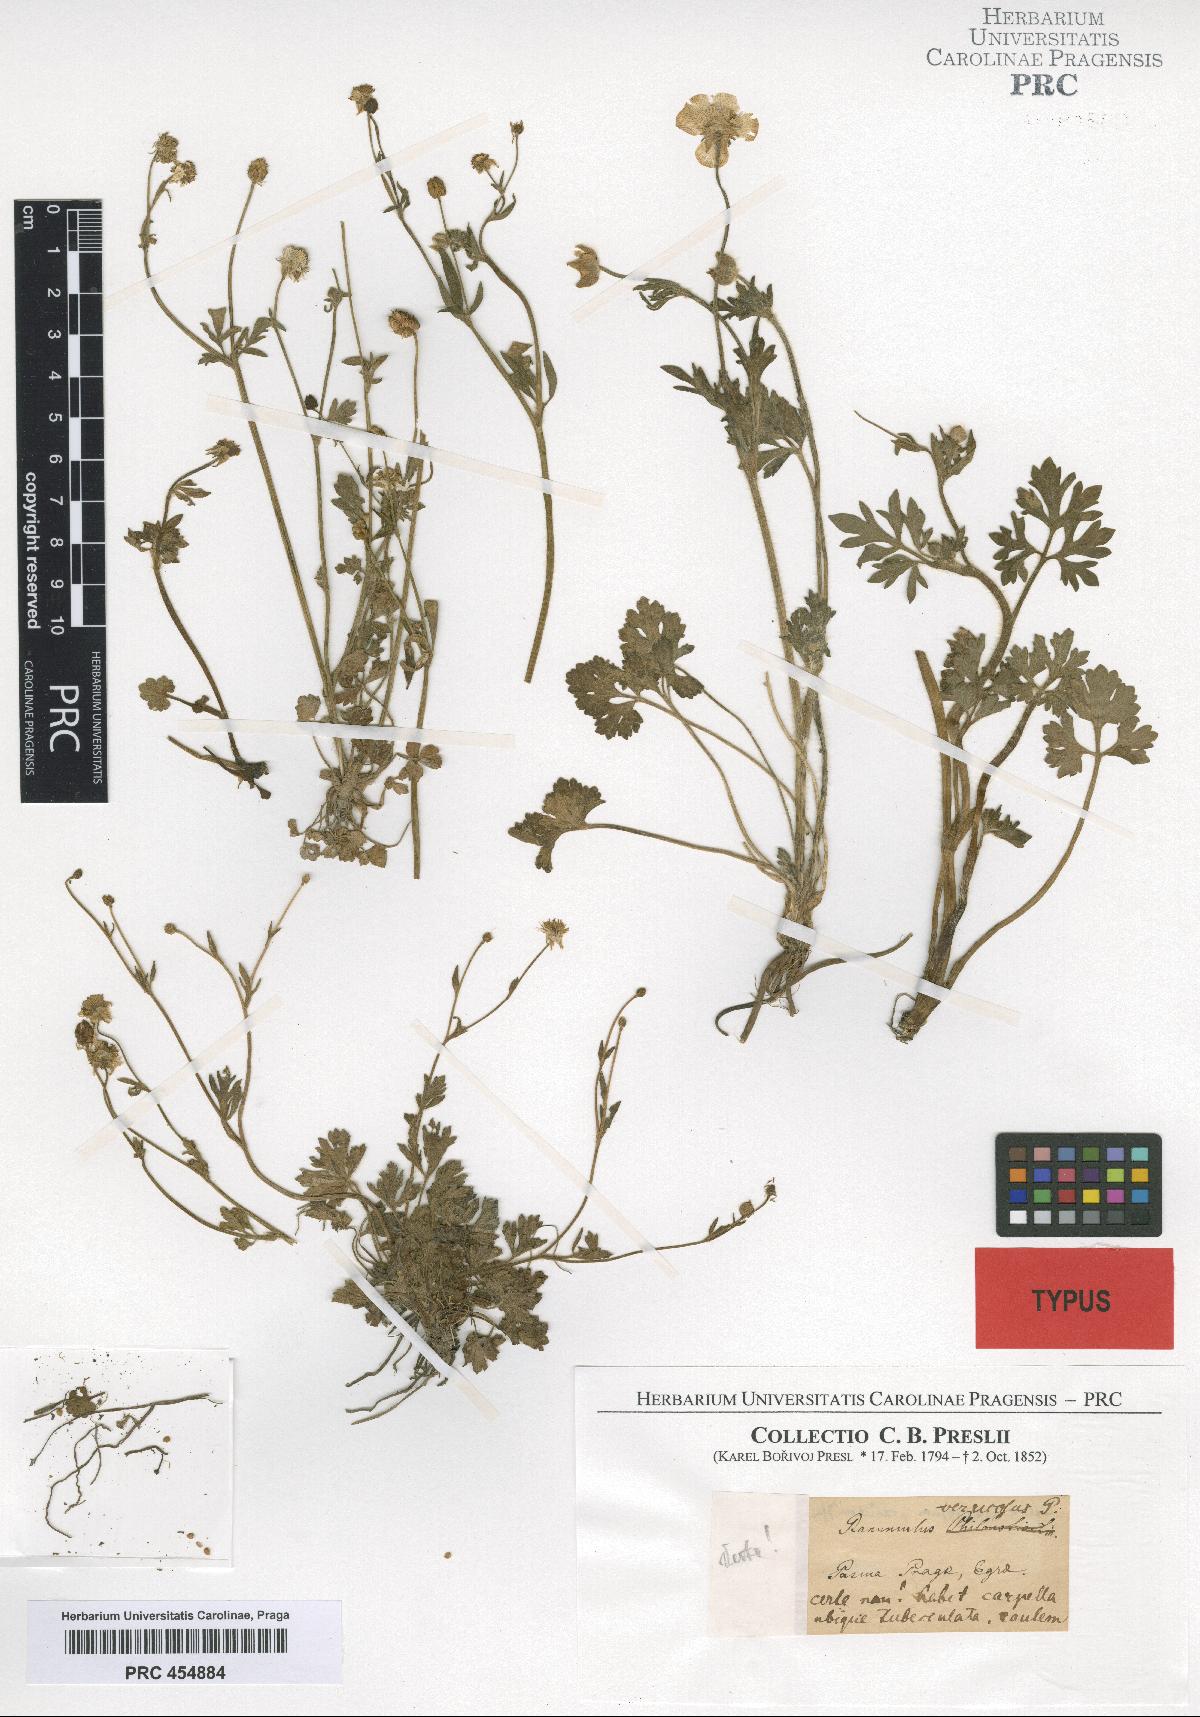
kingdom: Plantae
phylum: Tracheophyta
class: Magnoliopsida
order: Ranunculales
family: Ranunculaceae
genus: Ranunculus
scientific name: Ranunculus verrucosus
